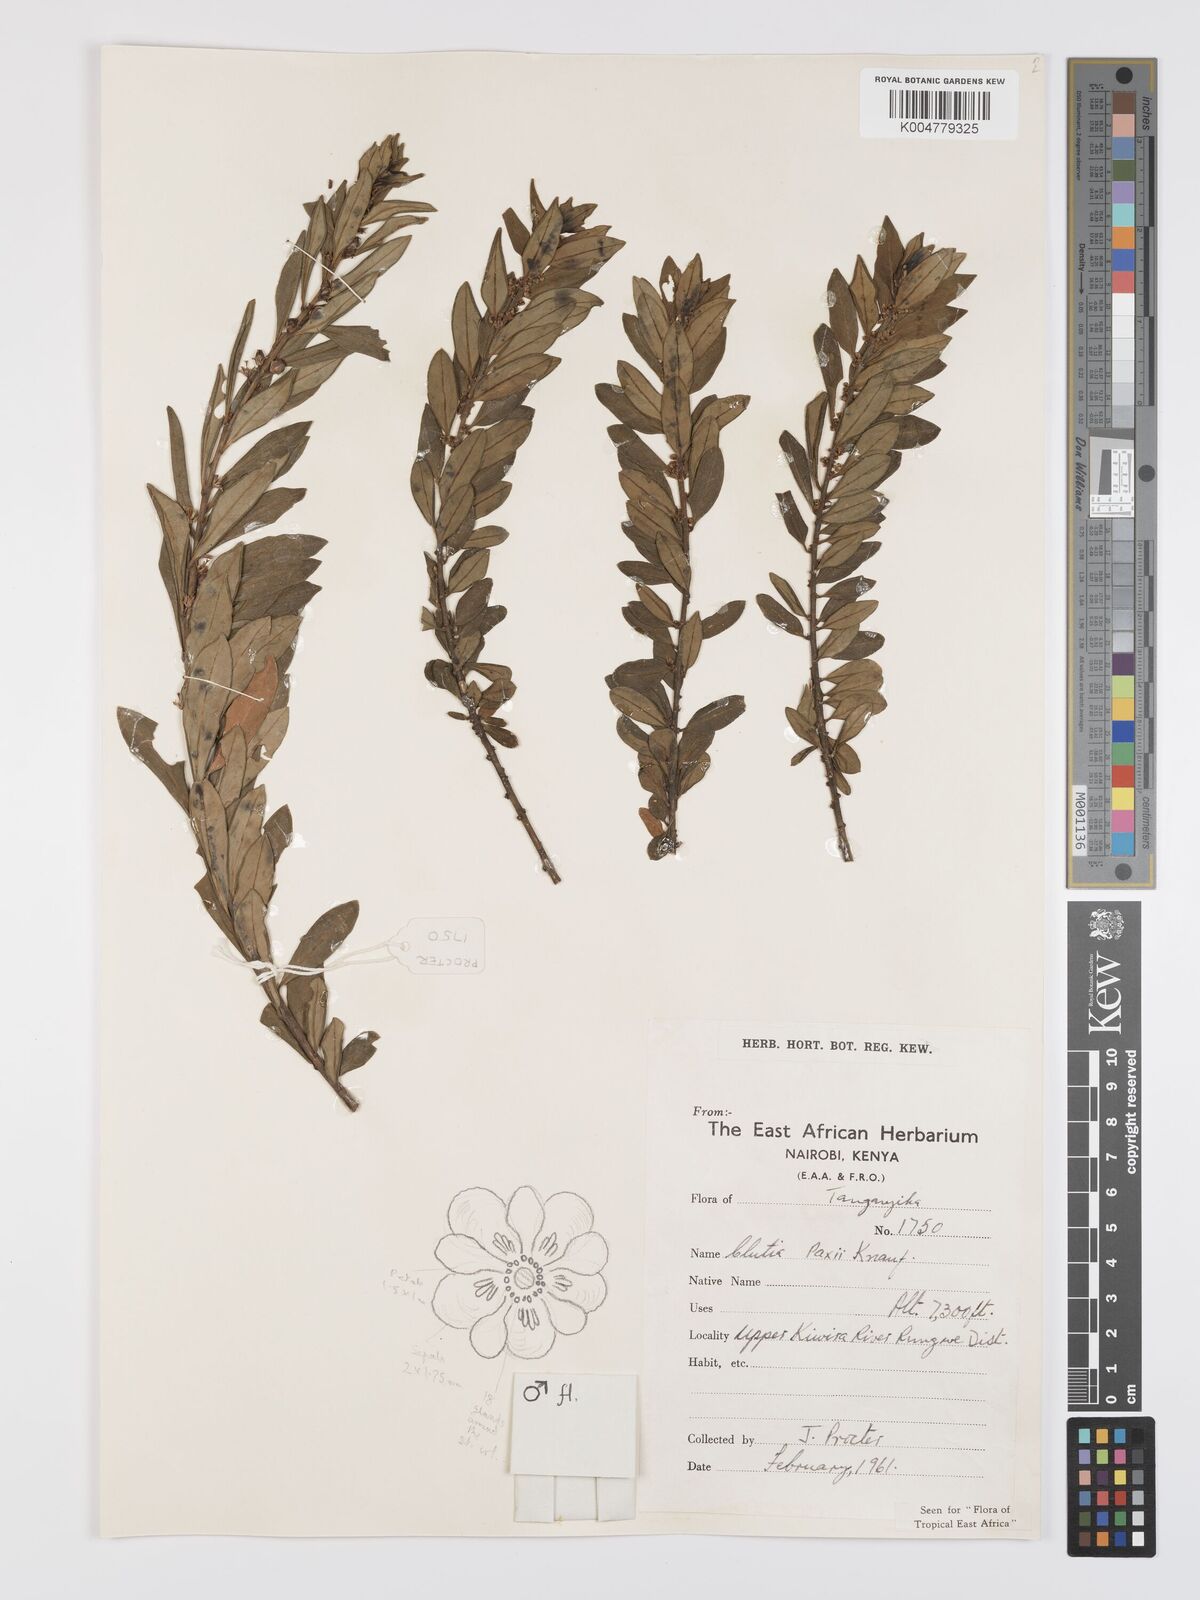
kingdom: Plantae
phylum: Tracheophyta
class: Magnoliopsida
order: Malpighiales
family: Peraceae
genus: Clutia
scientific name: Clutia paxii
